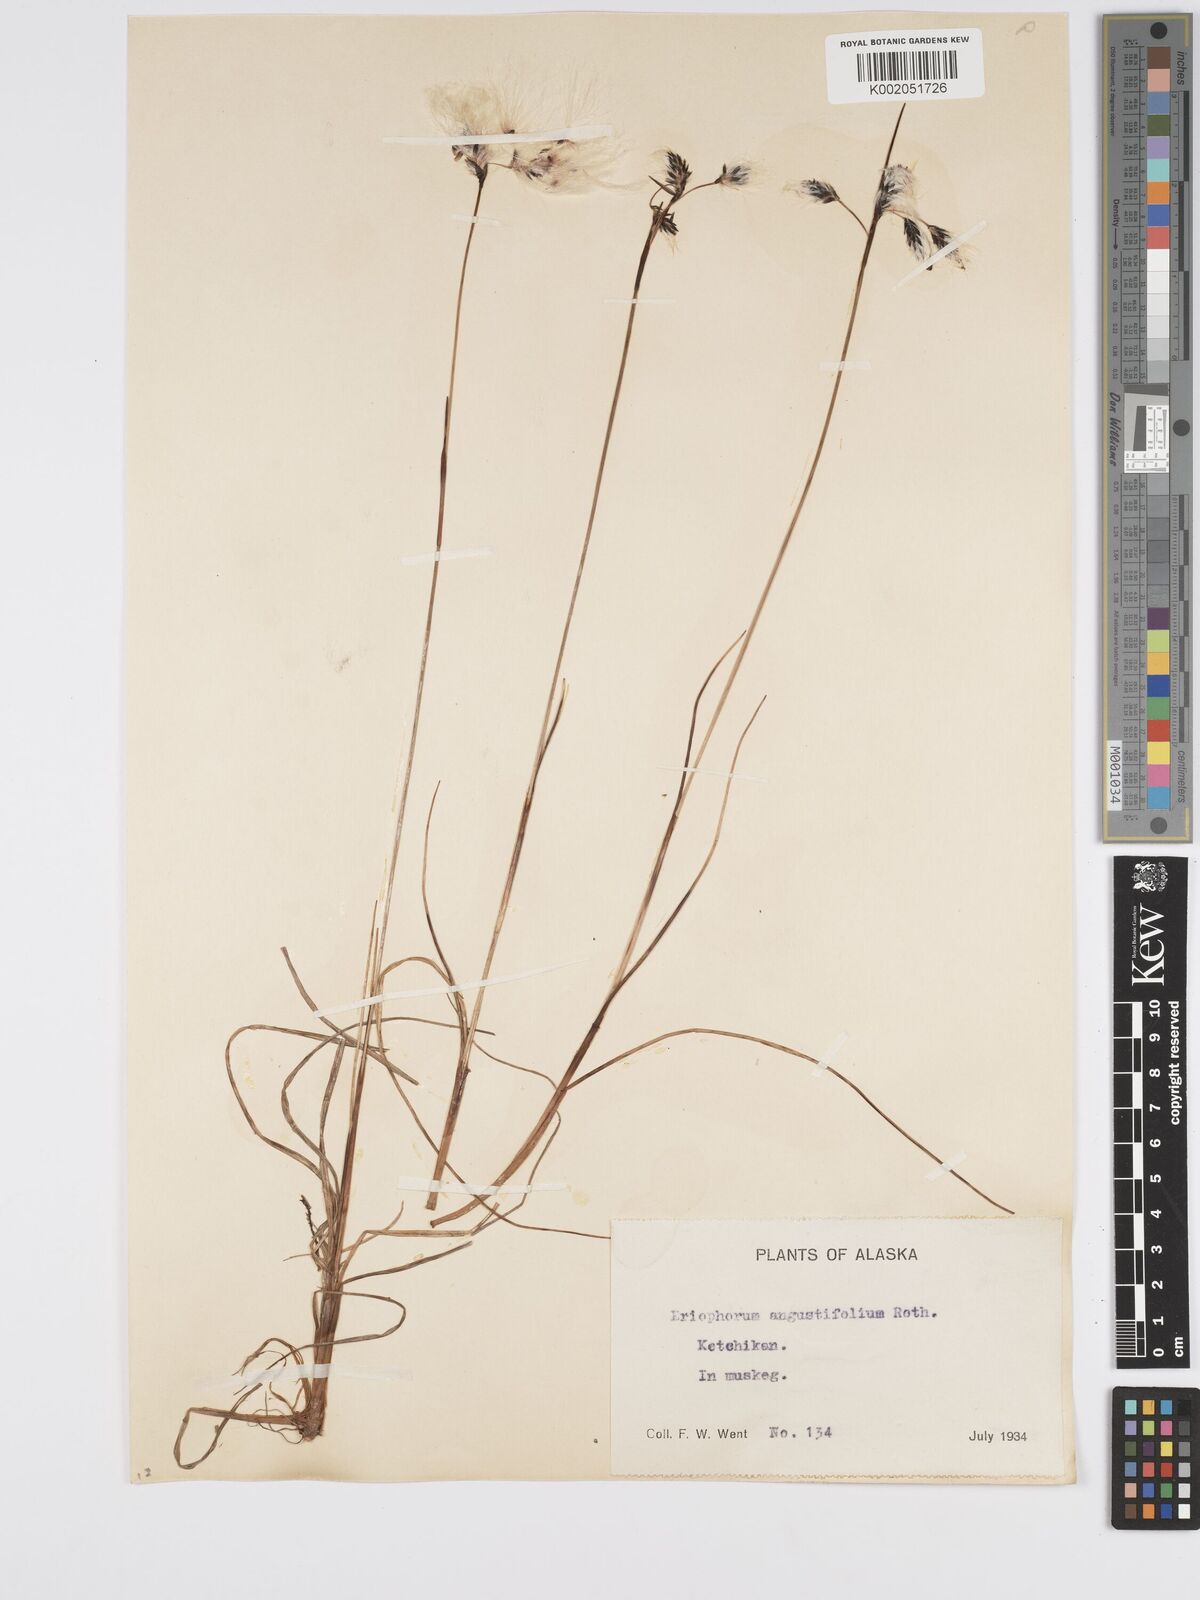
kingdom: Plantae
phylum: Tracheophyta
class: Liliopsida
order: Poales
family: Cyperaceae
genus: Eriophorum
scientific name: Eriophorum angustifolium
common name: Common cottongrass
